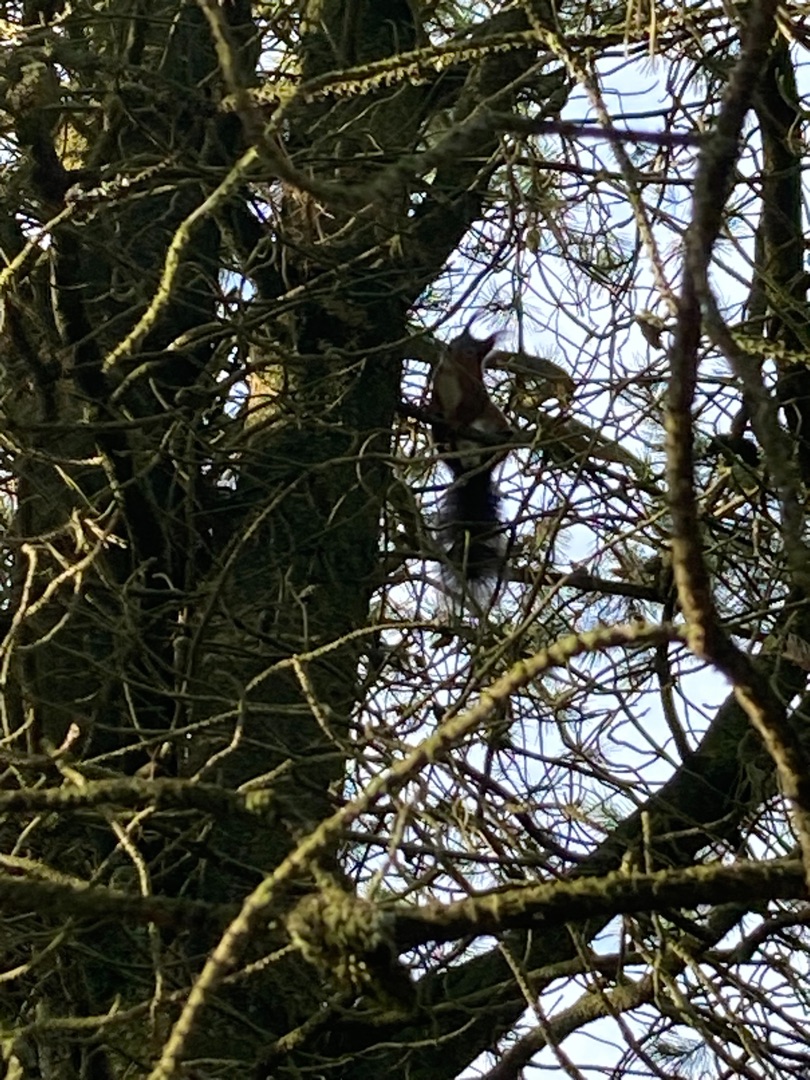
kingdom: Animalia
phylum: Chordata
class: Mammalia
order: Rodentia
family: Sciuridae
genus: Sciurus
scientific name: Sciurus vulgaris
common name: Egern
